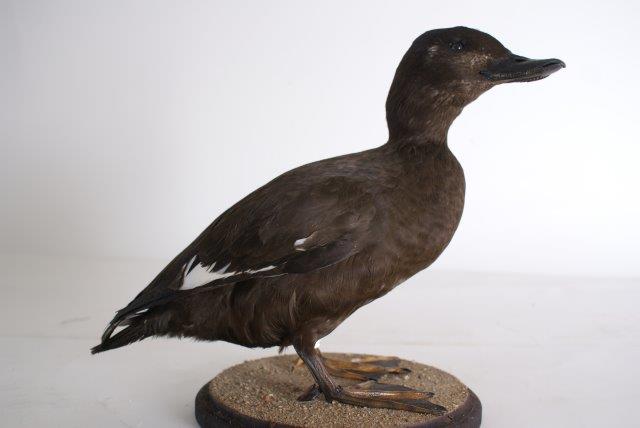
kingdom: Animalia
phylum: Chordata
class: Aves
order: Anseriformes
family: Anatidae
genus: Melanitta
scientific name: Melanitta fusca
